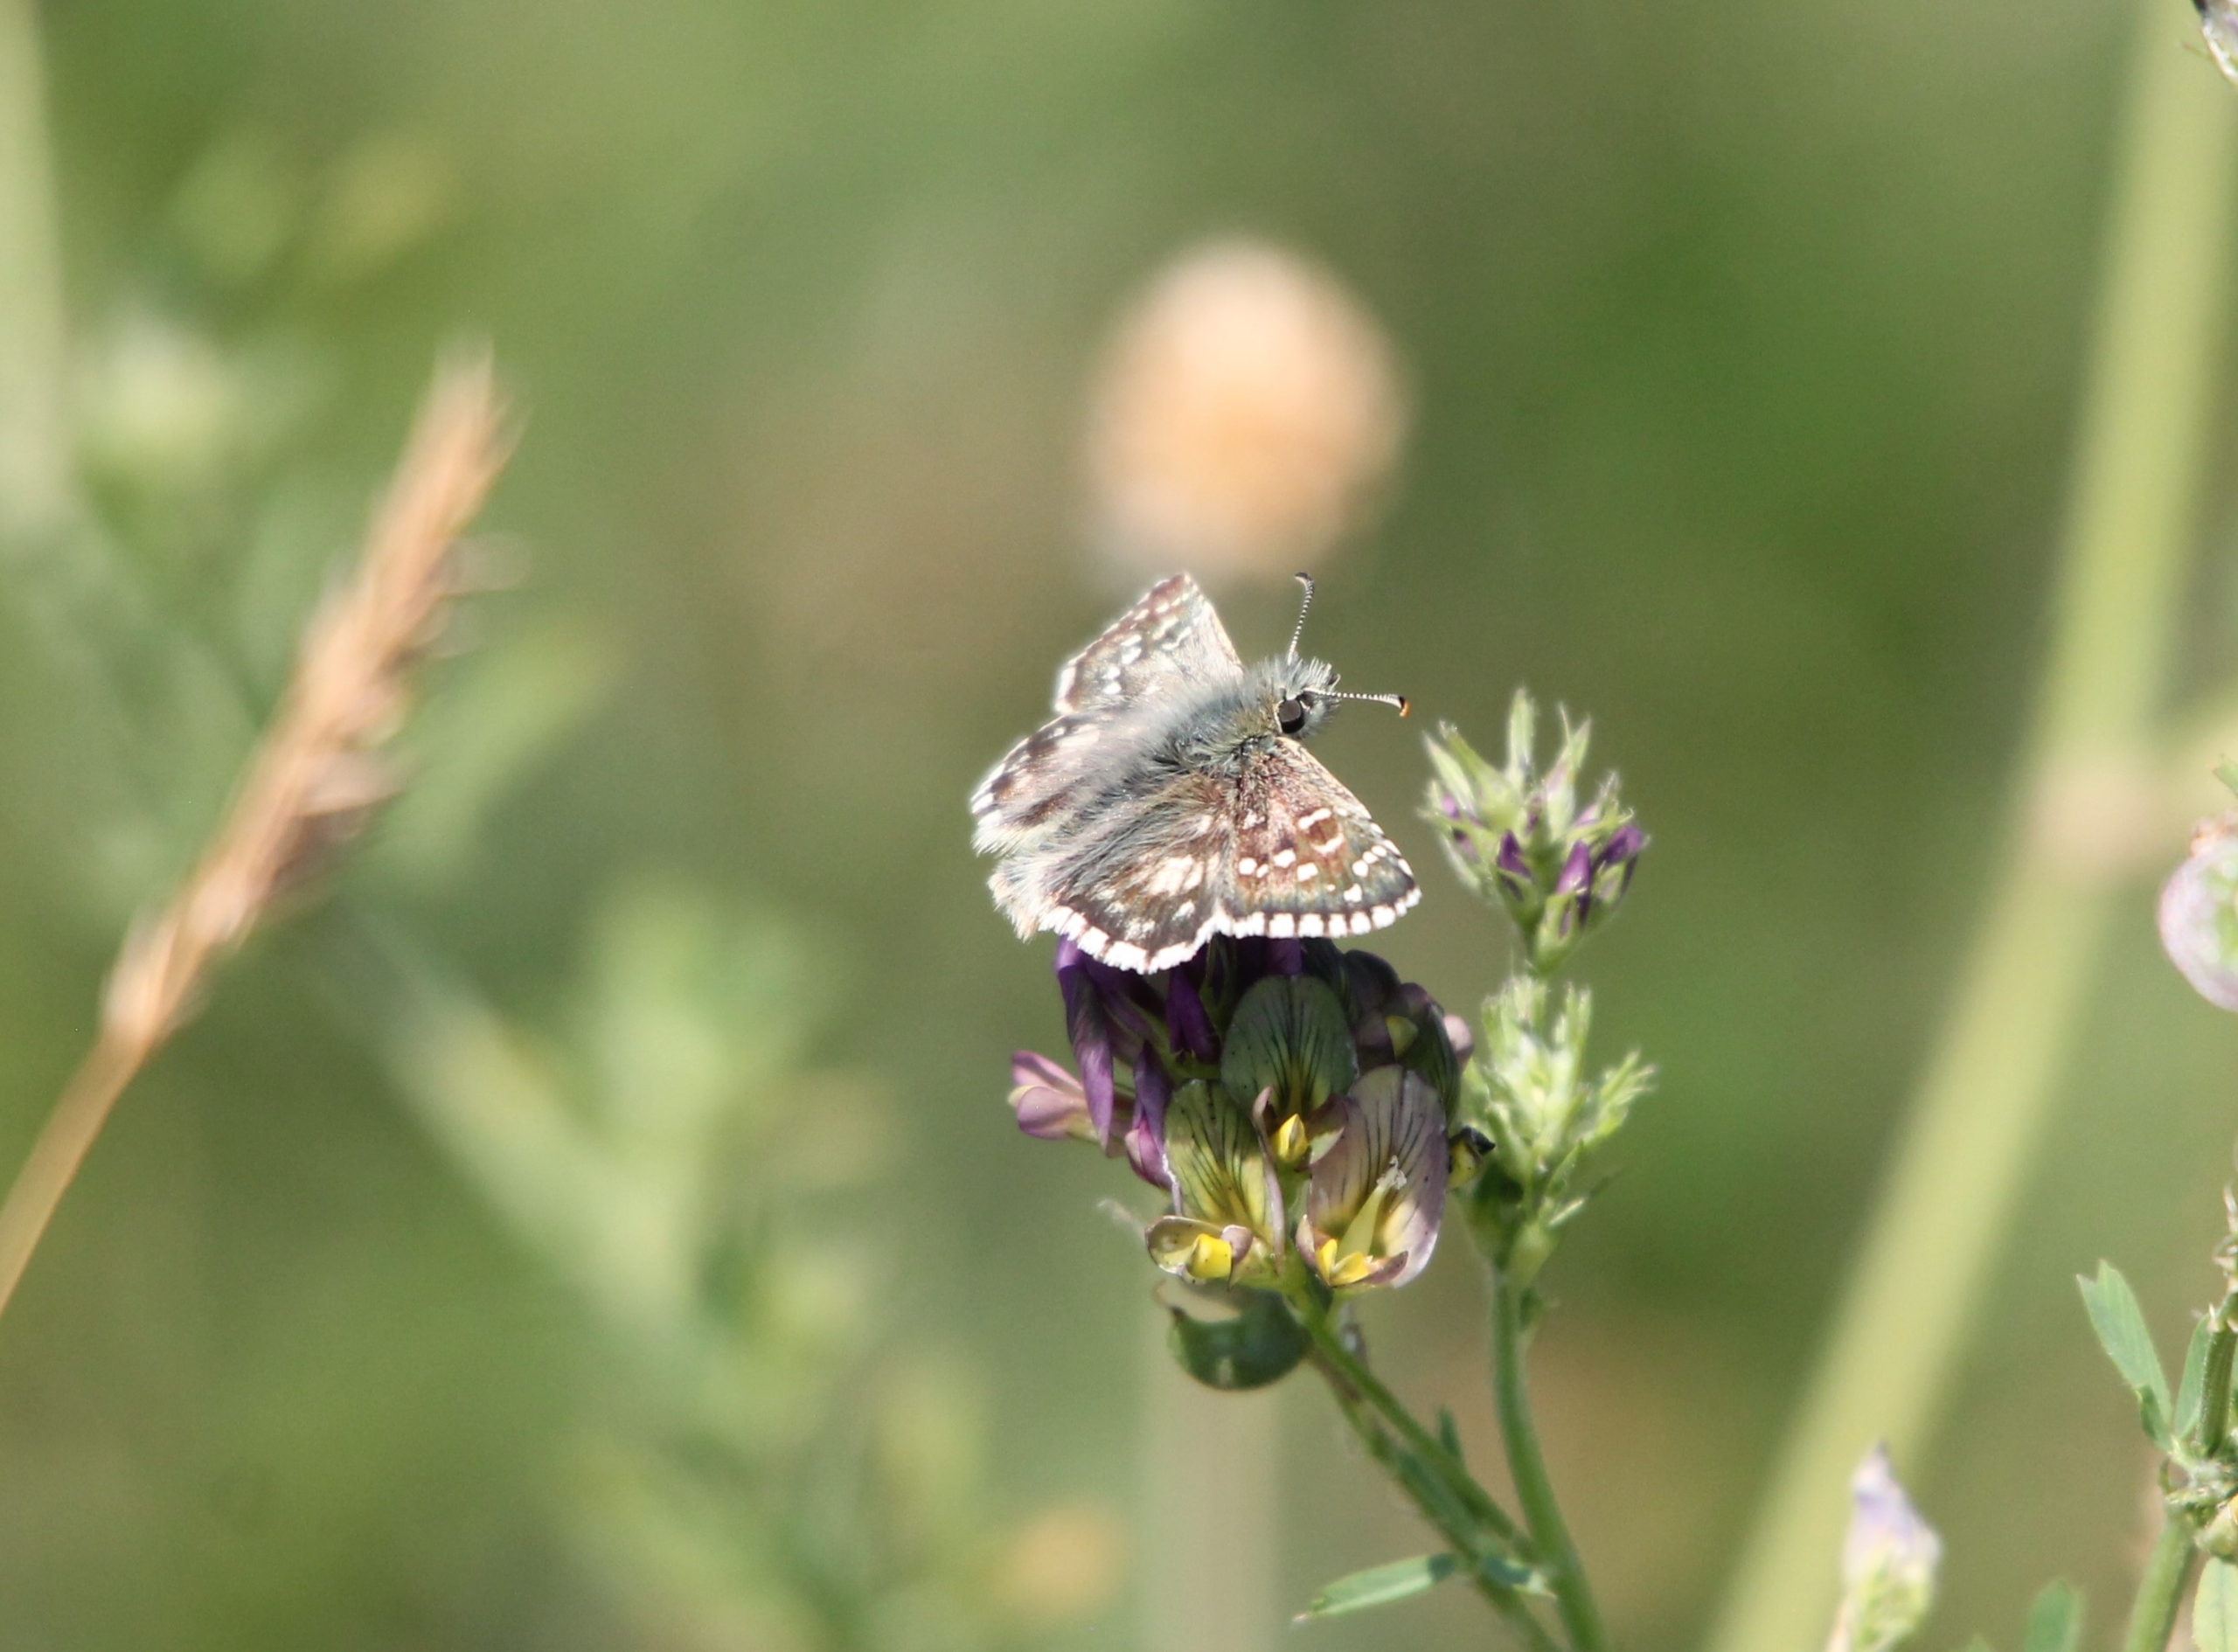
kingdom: Animalia
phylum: Arthropoda
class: Insecta
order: Lepidoptera
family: Hesperiidae
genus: Pyrgus
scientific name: Pyrgus armoricanus
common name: Fransk bredpande
